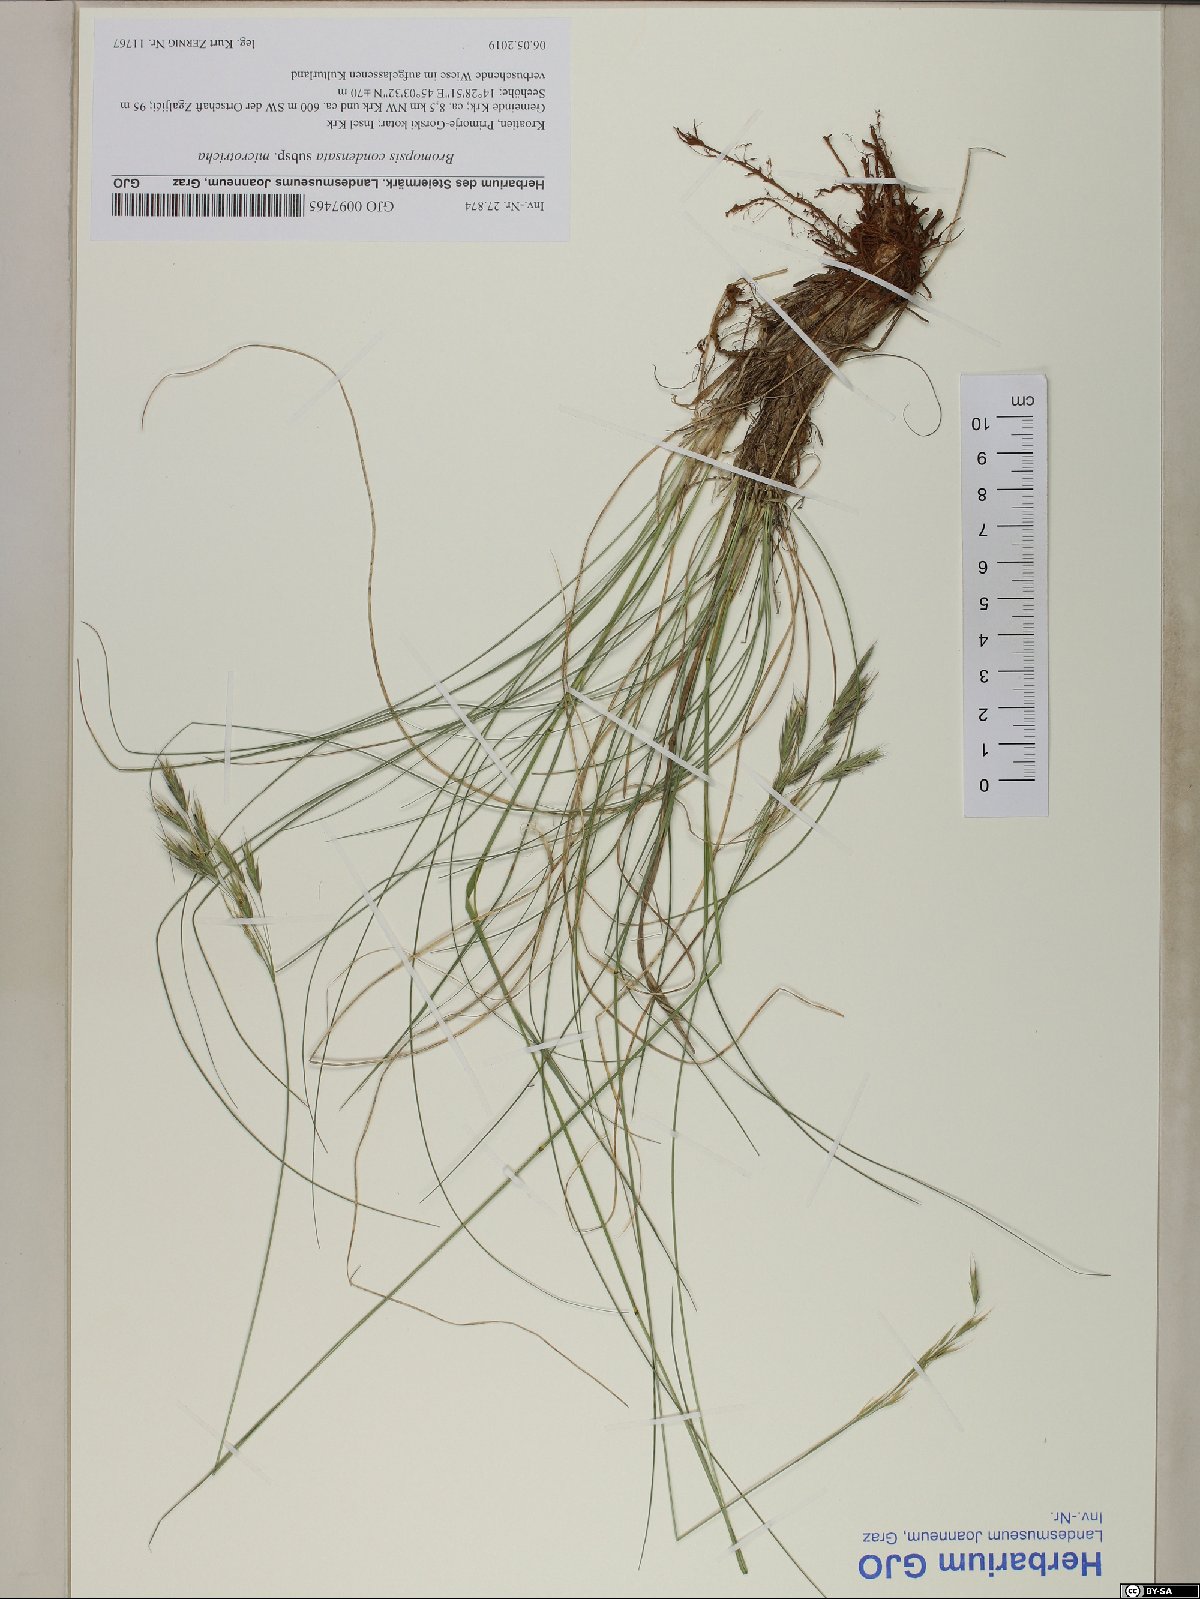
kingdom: Plantae
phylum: Tracheophyta
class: Liliopsida
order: Poales
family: Poaceae
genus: Bromus
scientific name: Bromus condensatus
